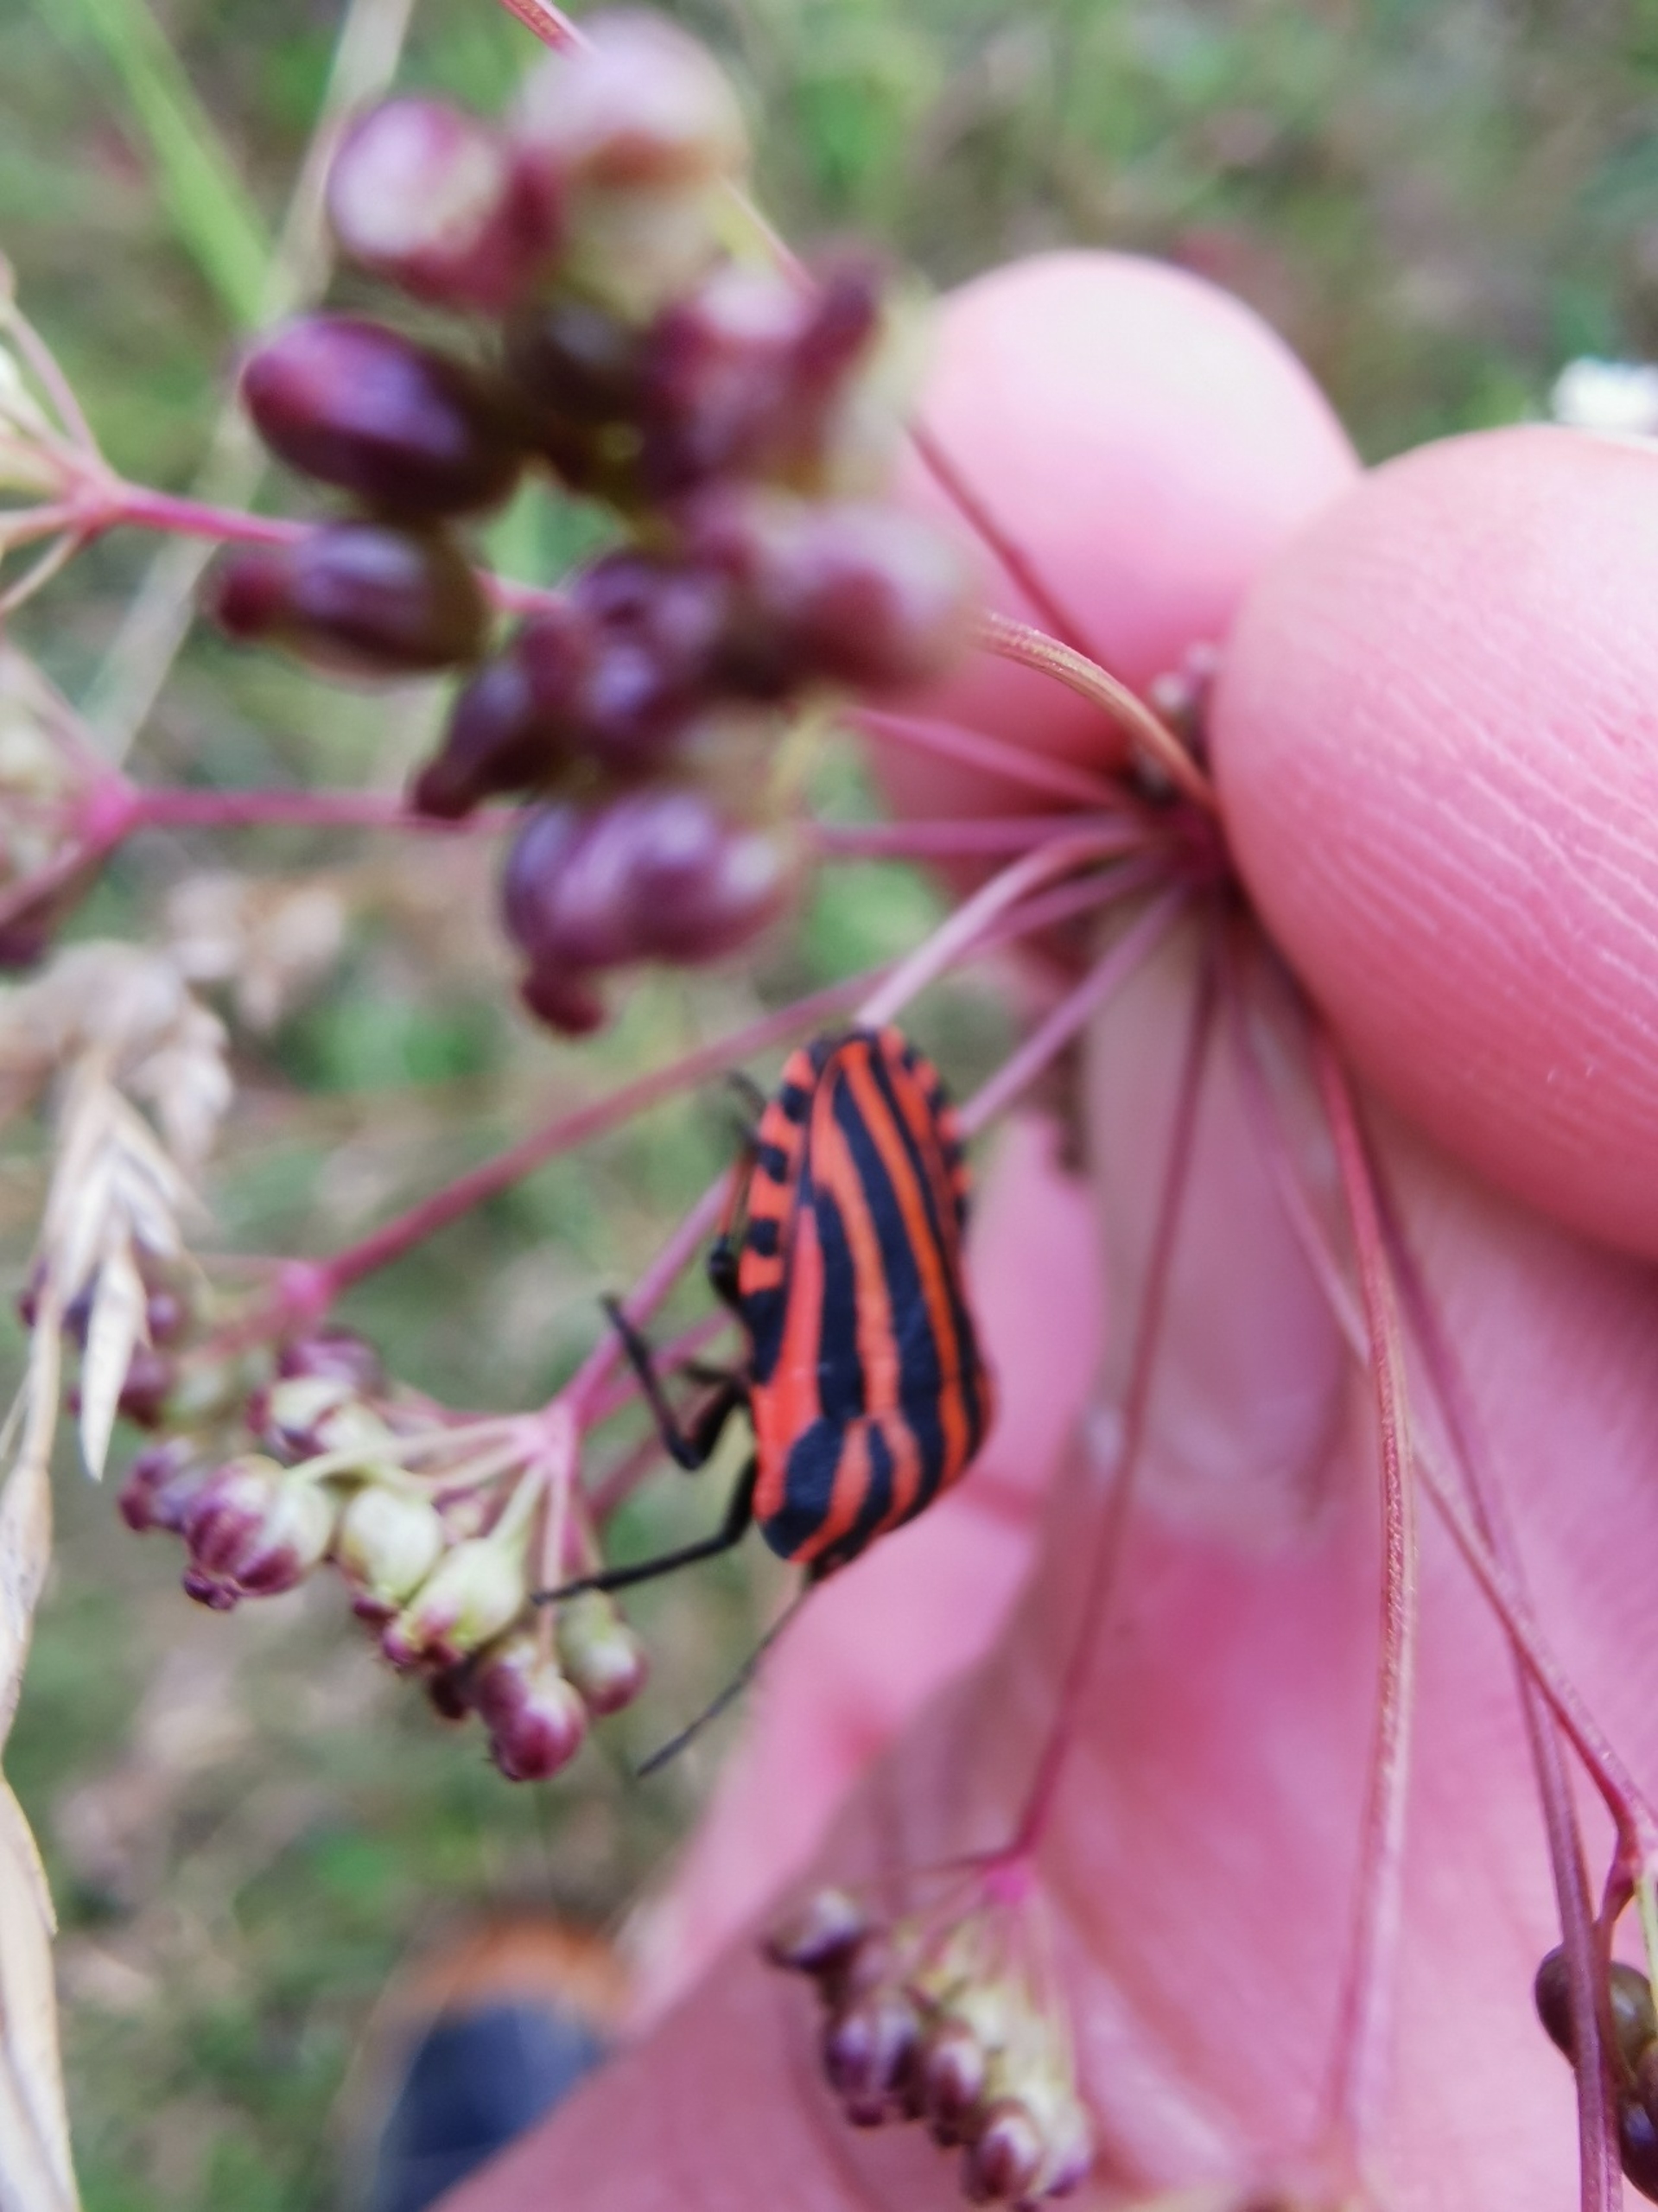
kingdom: Animalia
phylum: Arthropoda
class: Insecta
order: Hemiptera
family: Pentatomidae
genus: Graphosoma
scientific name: Graphosoma italicum
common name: Stribetæge
